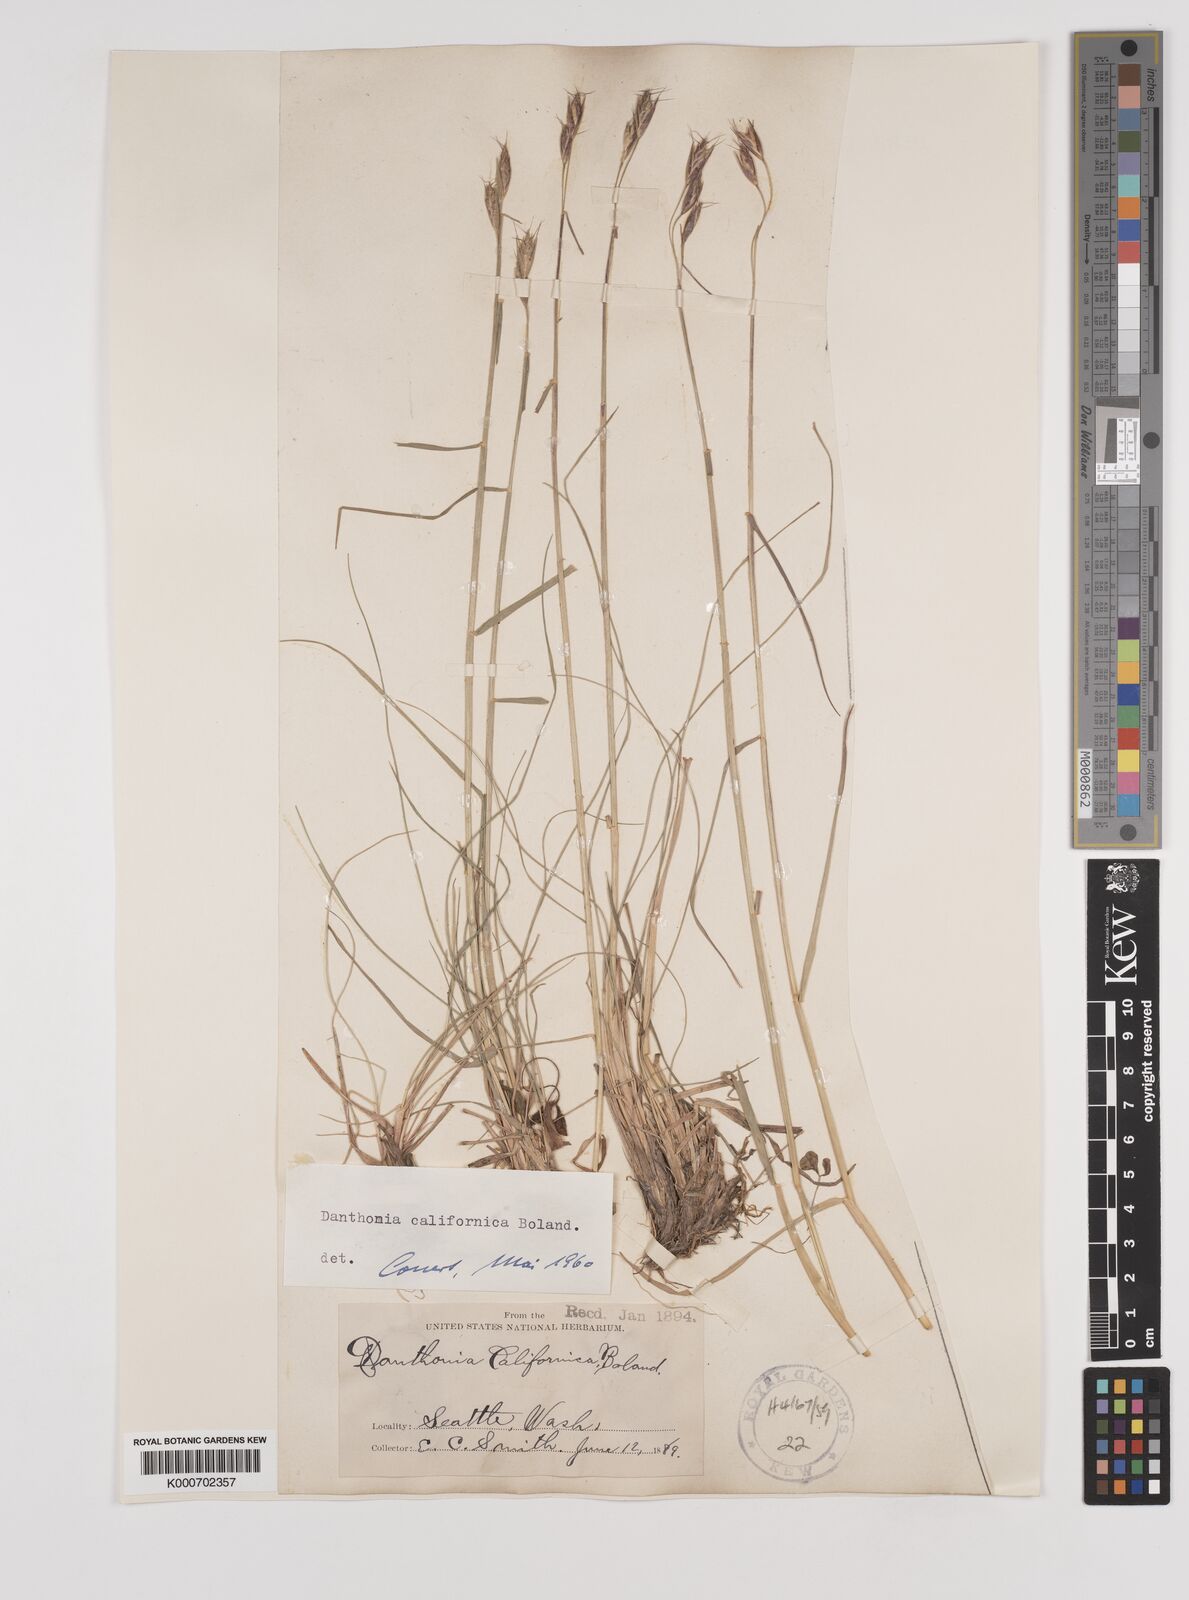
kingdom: Plantae
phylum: Tracheophyta
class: Liliopsida
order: Poales
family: Poaceae
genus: Danthonia
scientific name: Danthonia californica
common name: California oat grass
